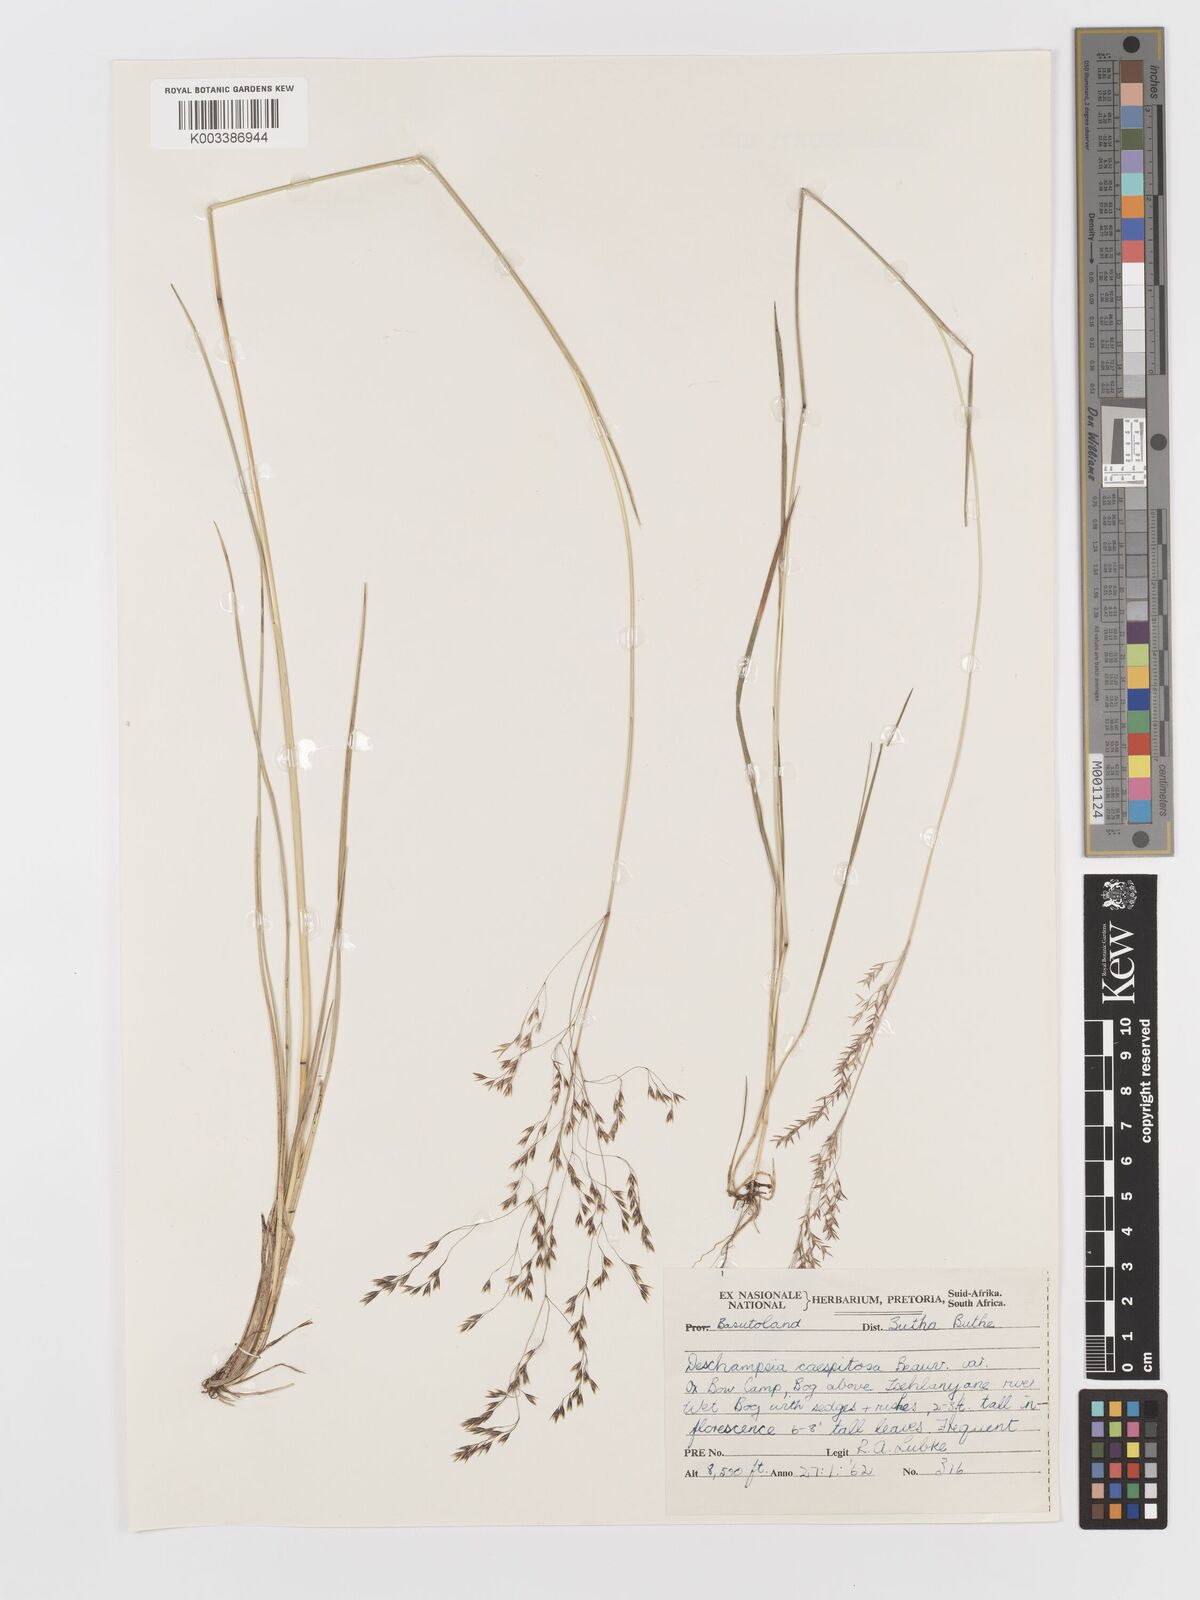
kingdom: Plantae
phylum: Tracheophyta
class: Liliopsida
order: Poales
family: Poaceae
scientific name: Poaceae
